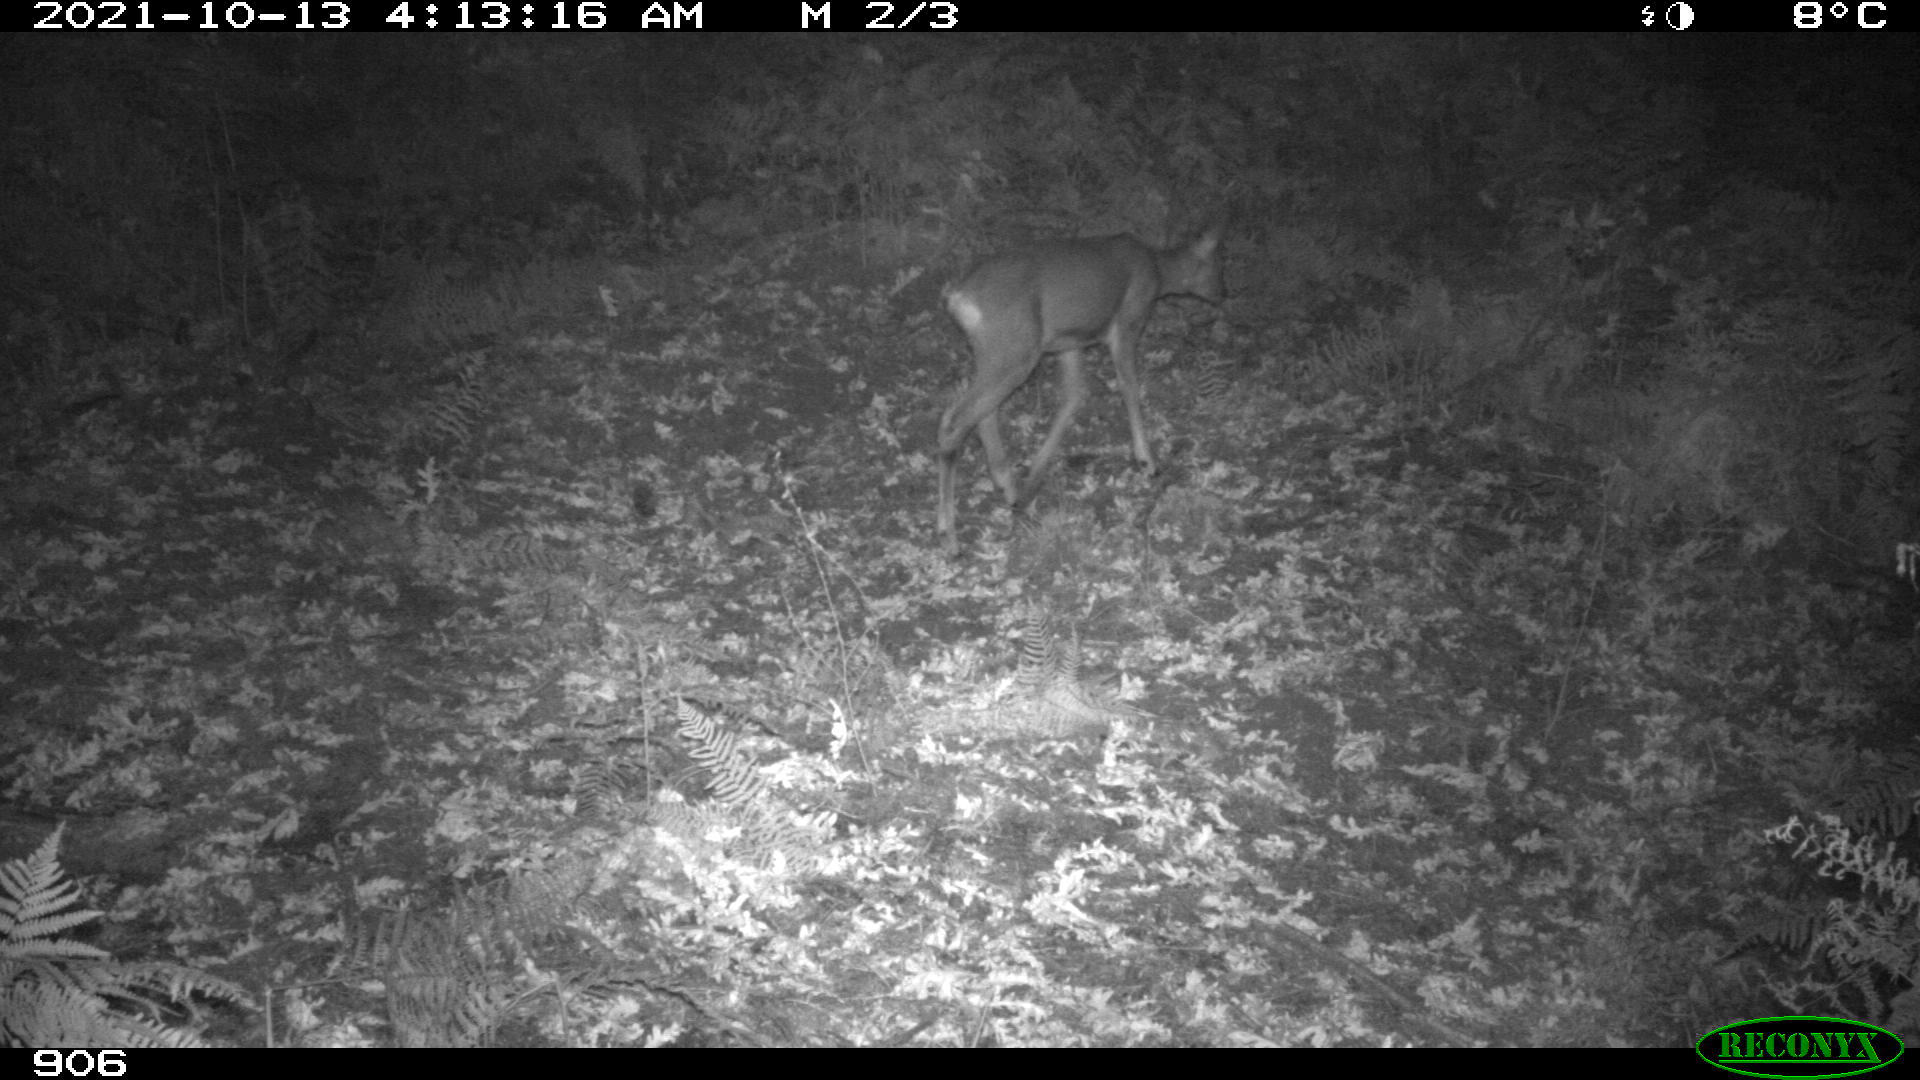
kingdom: Animalia
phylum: Chordata
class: Mammalia
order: Artiodactyla
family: Cervidae
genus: Capreolus
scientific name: Capreolus capreolus
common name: Western roe deer
